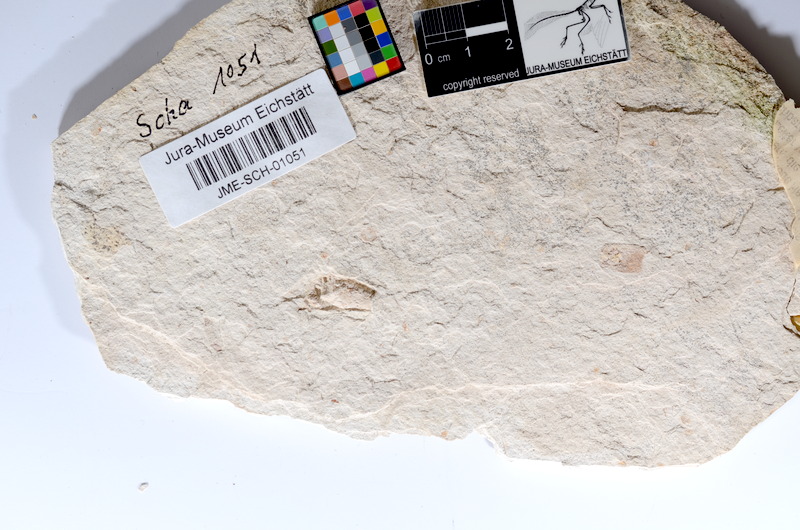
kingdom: Animalia
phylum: Chordata
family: Ascalaboidae
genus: Tharsis
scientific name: Tharsis dubius
